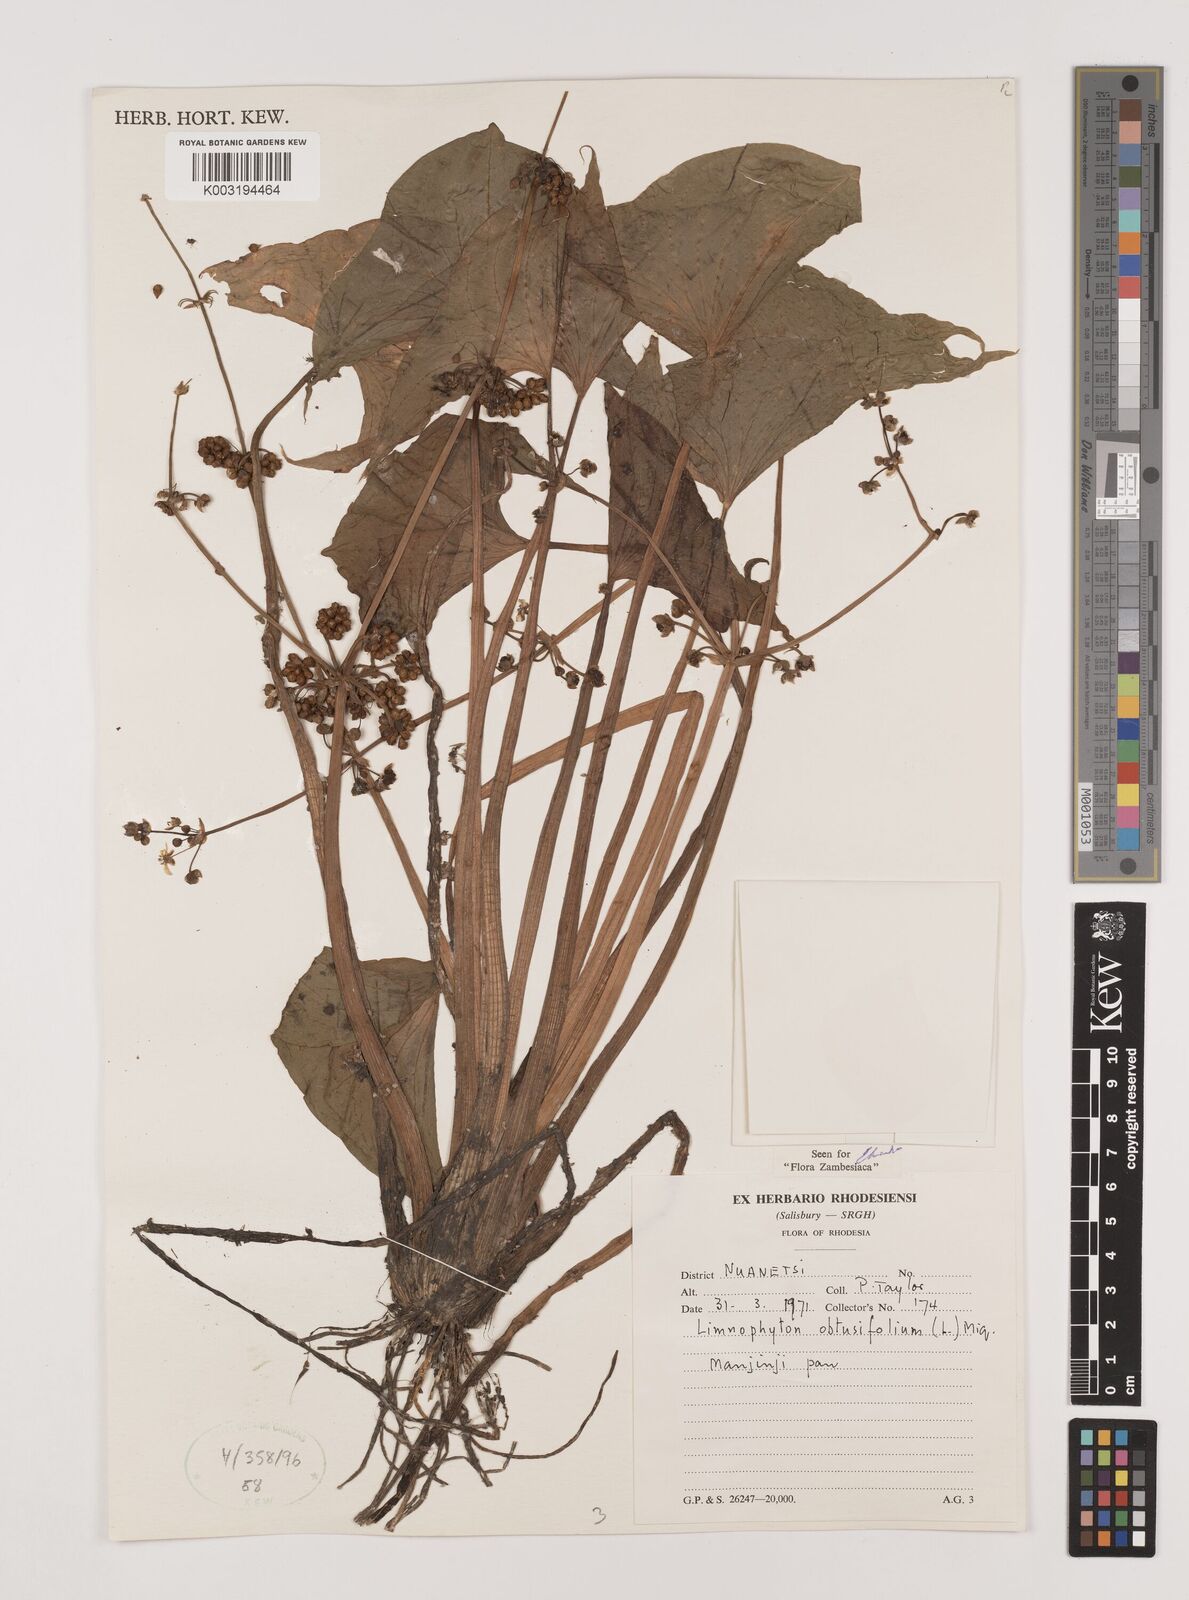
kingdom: Plantae
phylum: Tracheophyta
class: Liliopsida
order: Alismatales
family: Alismataceae
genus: Limnophyton
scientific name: Limnophyton obtusifolium
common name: Arrow head
